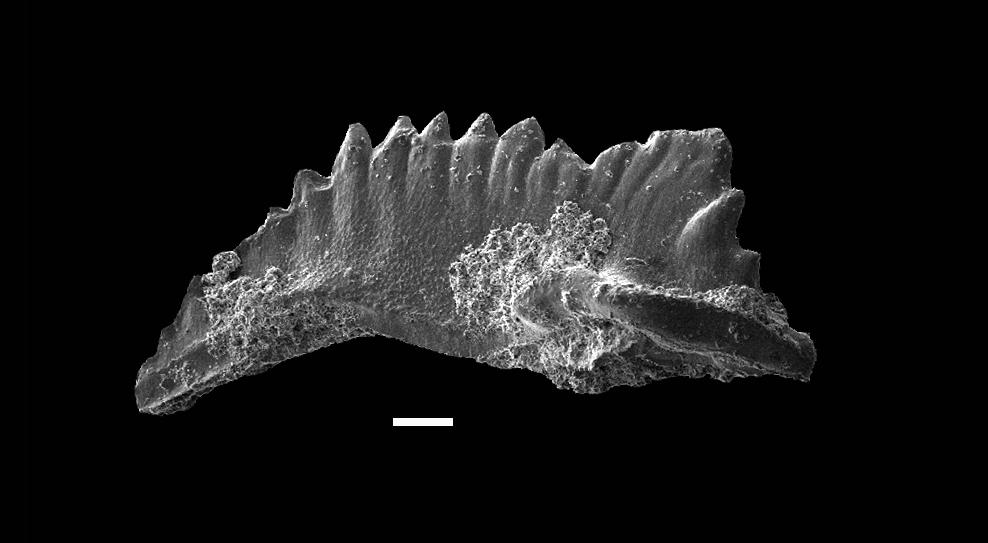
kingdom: Animalia
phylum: Chordata
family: Pterospathodontidae
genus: Astropentagnathus
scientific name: Astropentagnathus irregularis
